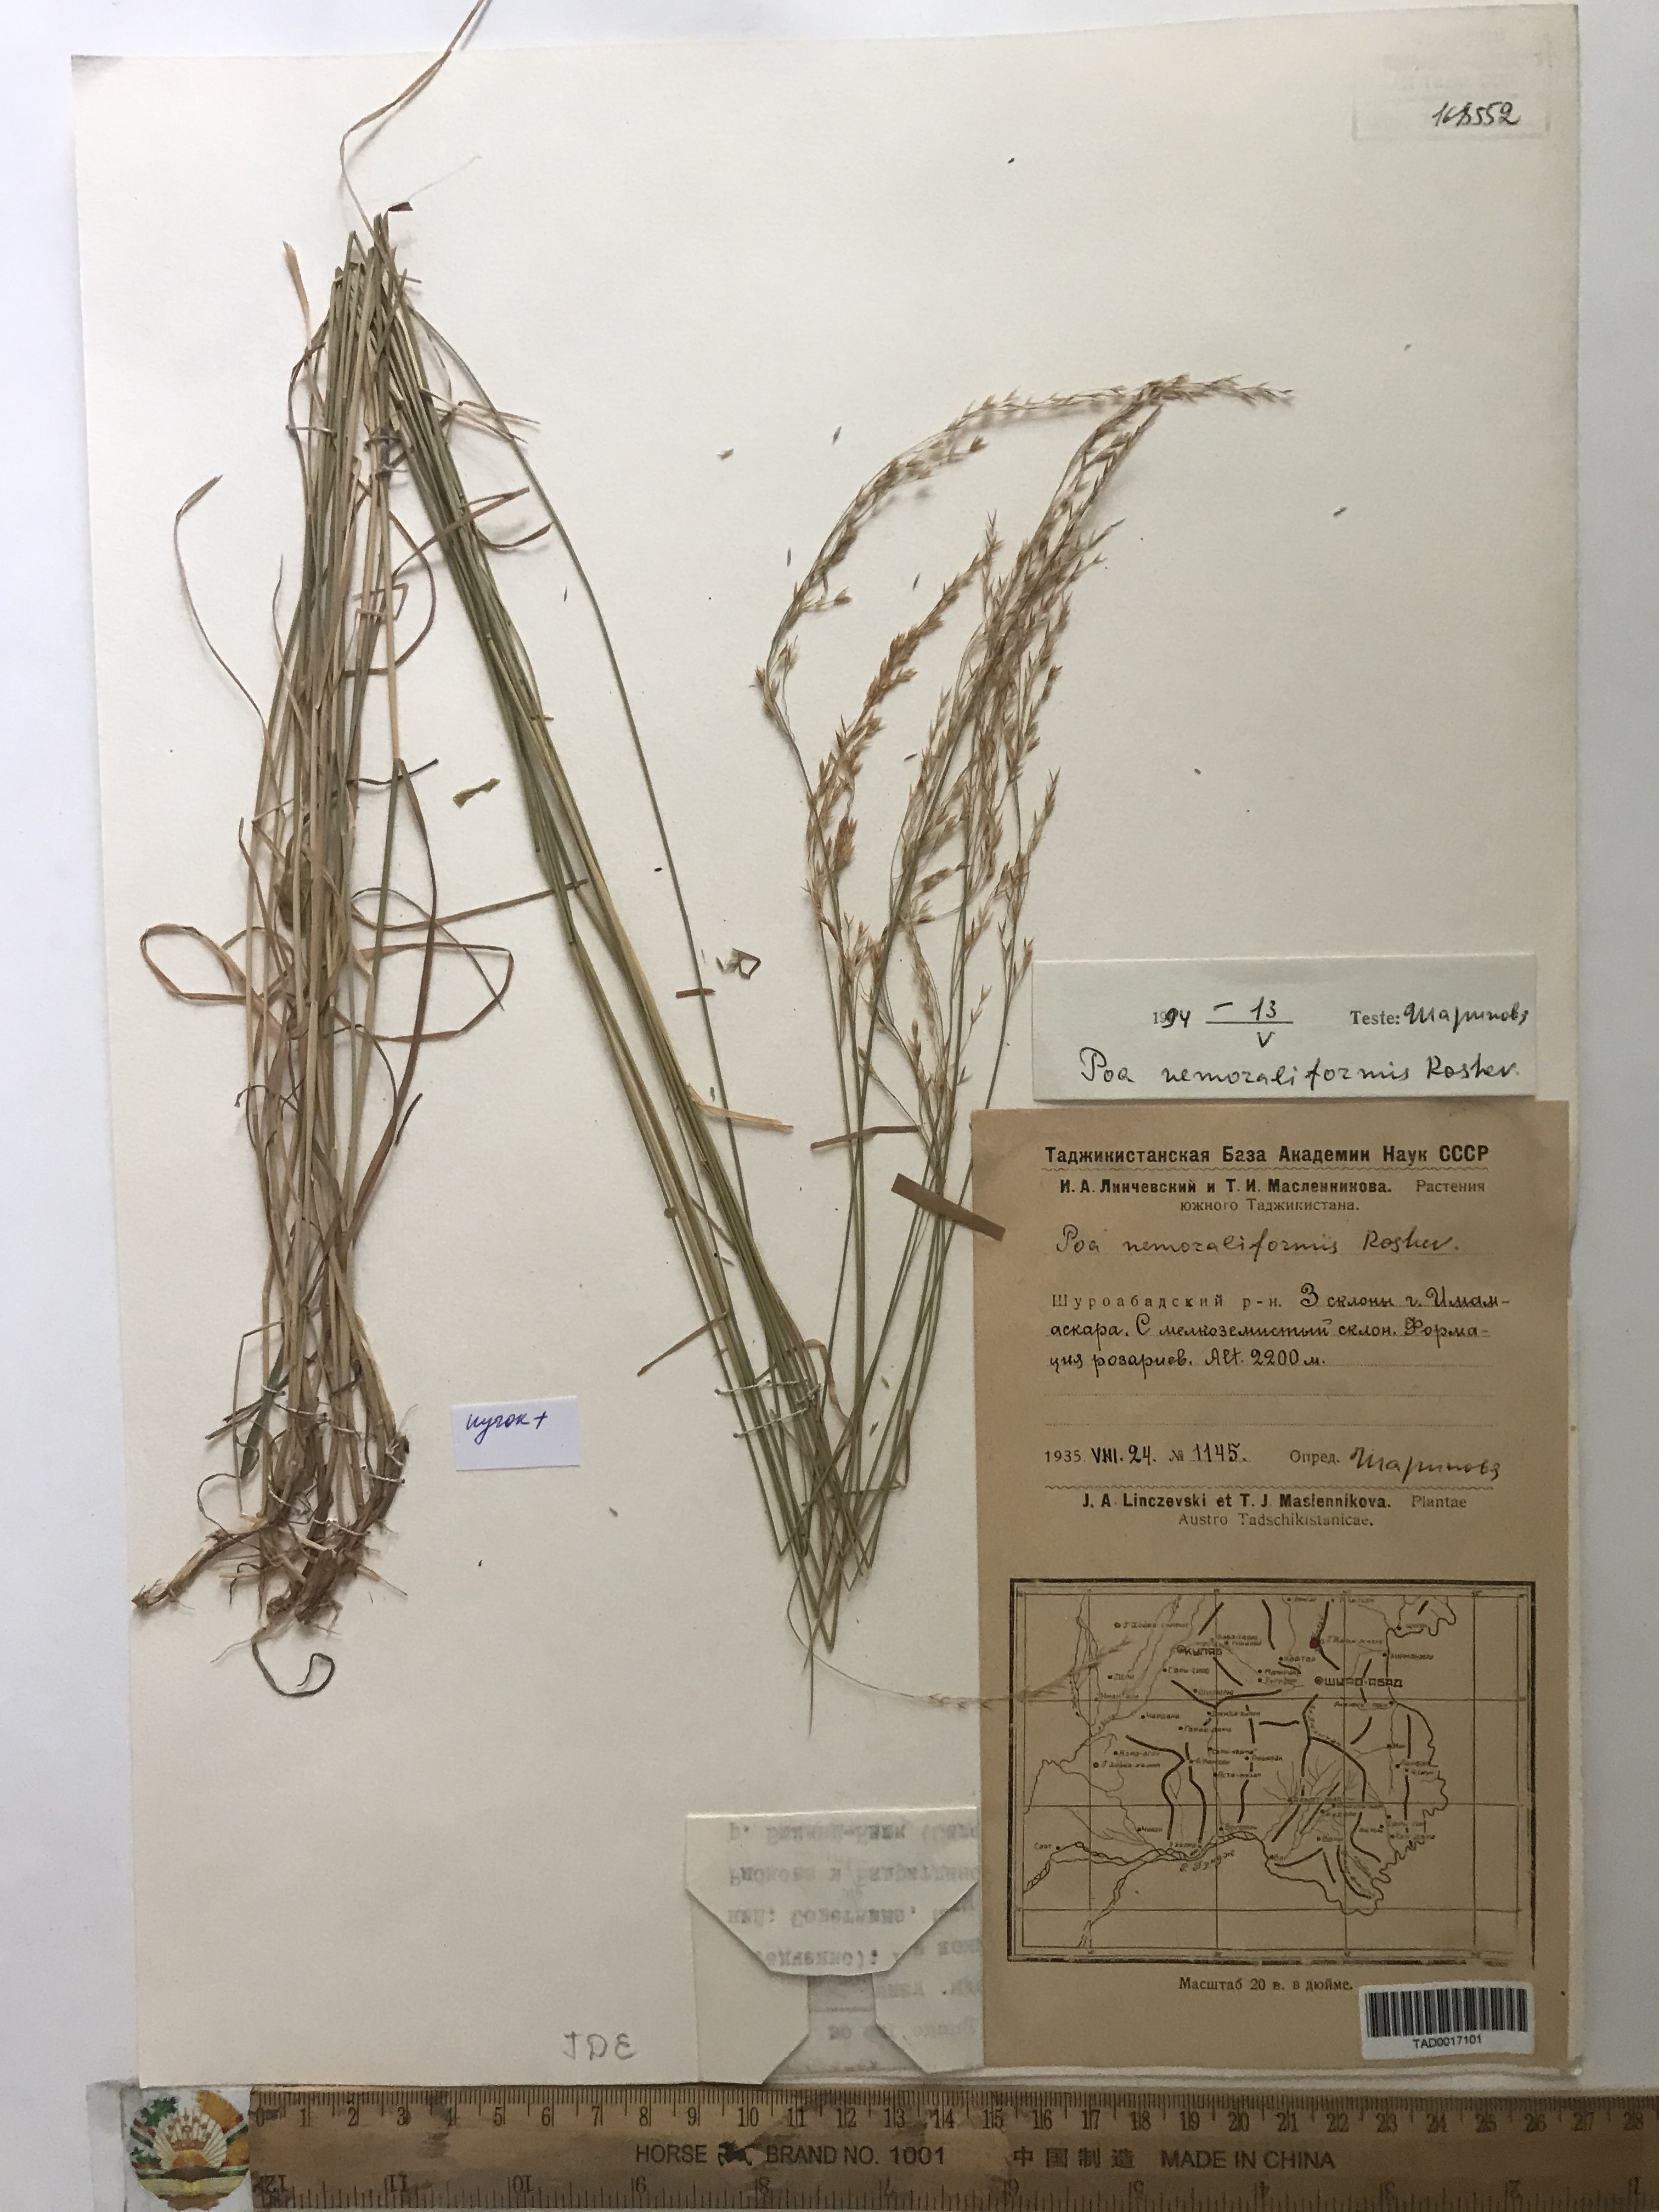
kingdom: Plantae
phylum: Tracheophyta
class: Liliopsida
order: Poales
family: Poaceae
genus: Poa
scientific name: Poa urssulensis
